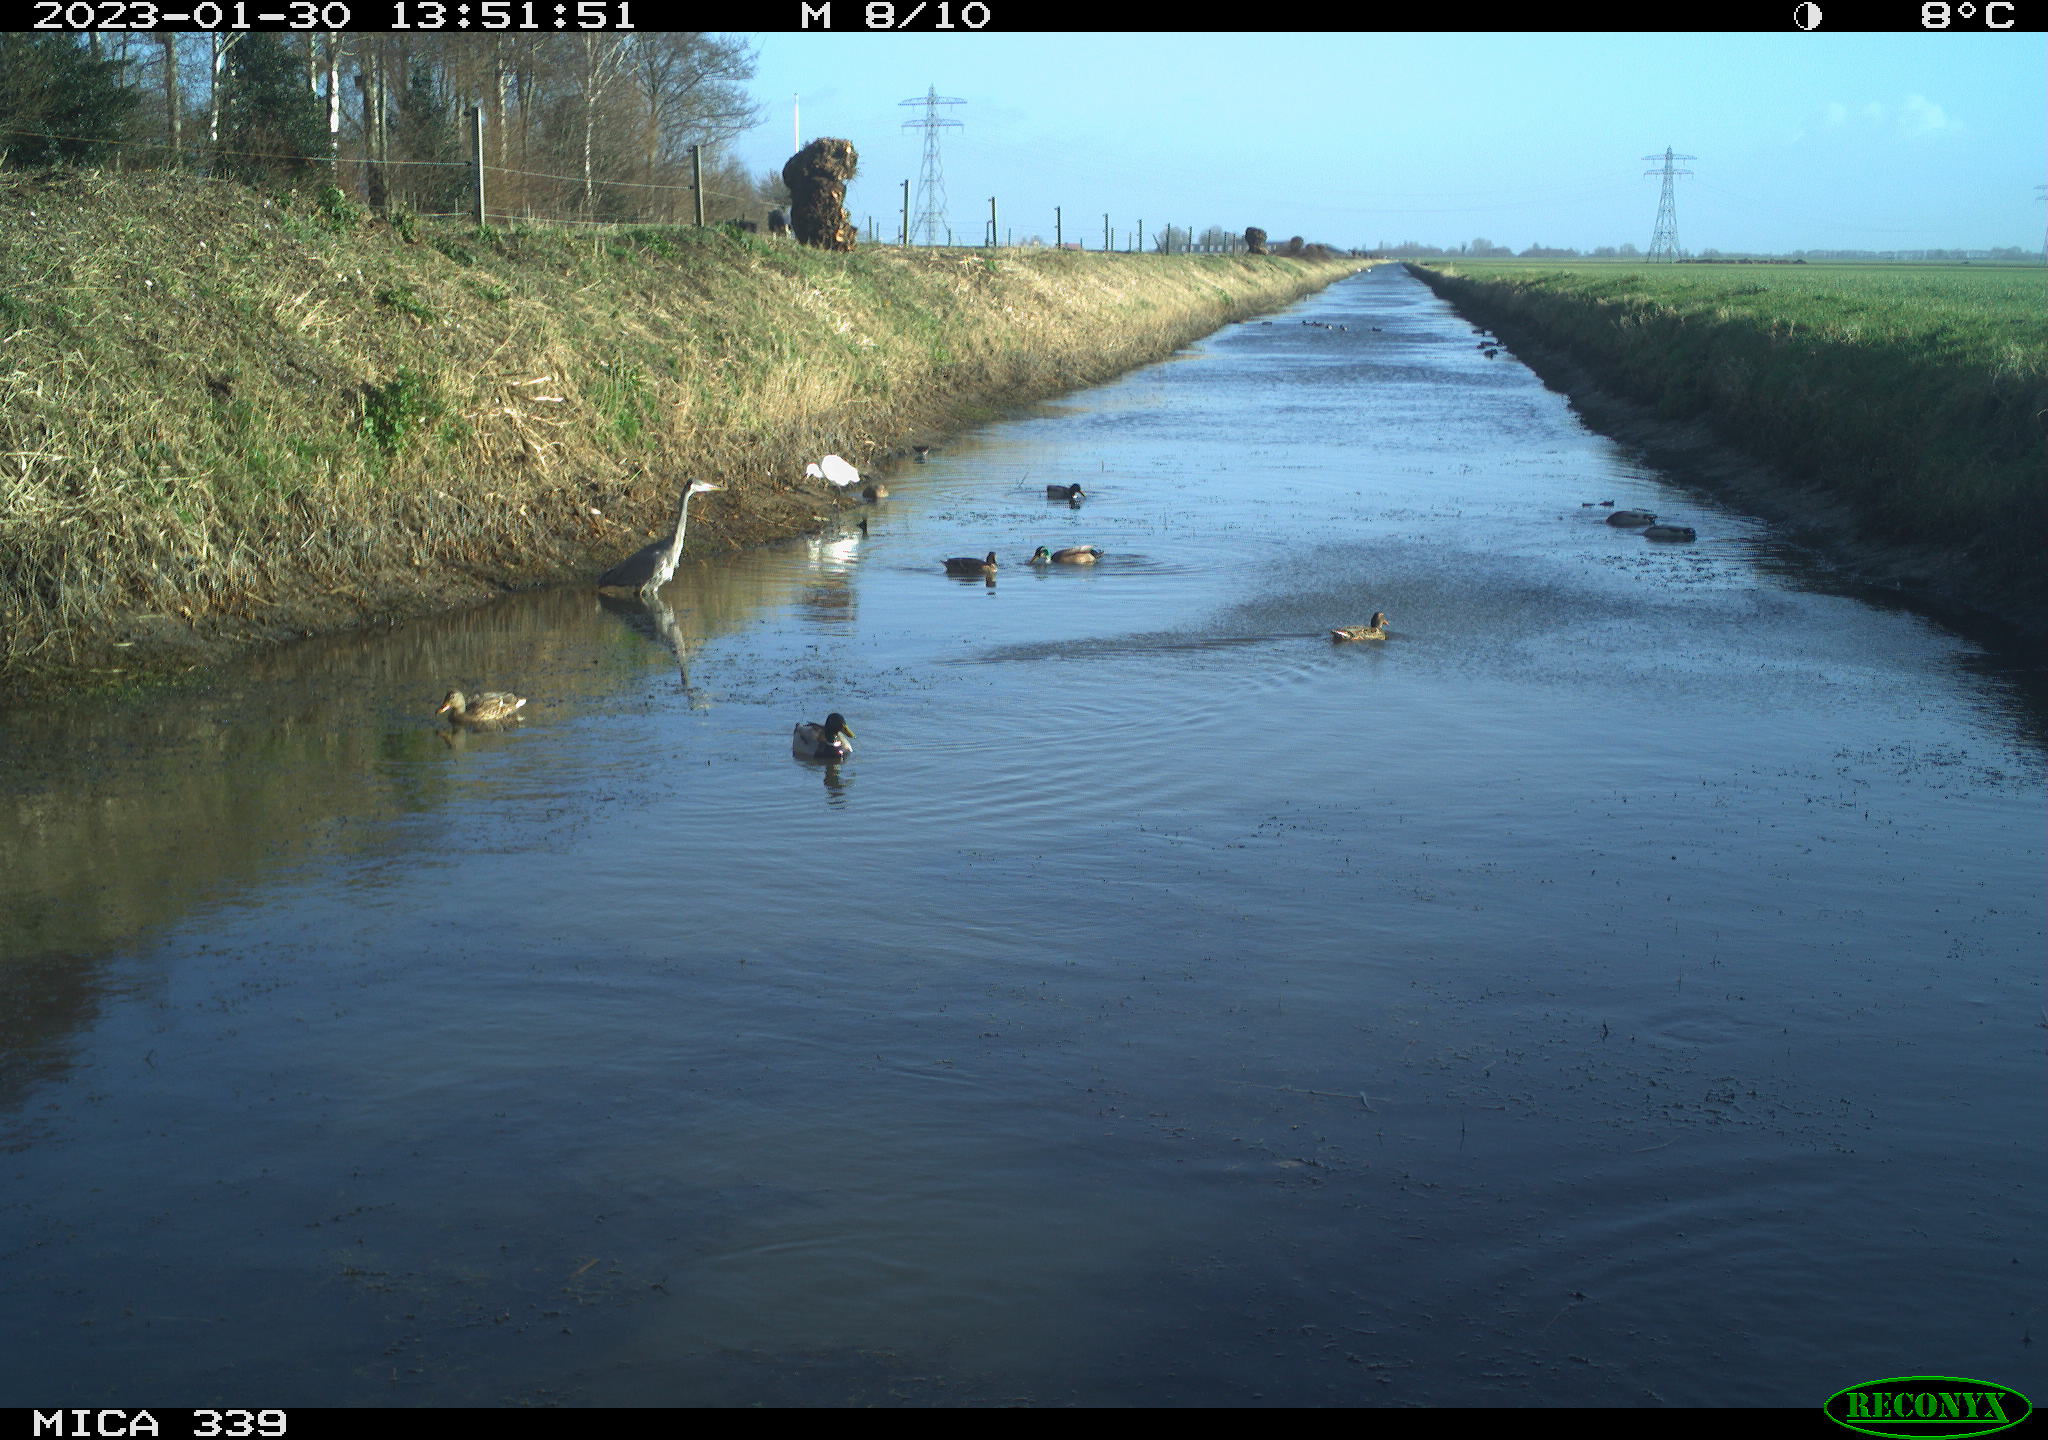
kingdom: Animalia
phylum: Chordata
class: Aves
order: Pelecaniformes
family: Ardeidae
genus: Ardea
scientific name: Ardea cinerea
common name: Grey heron
